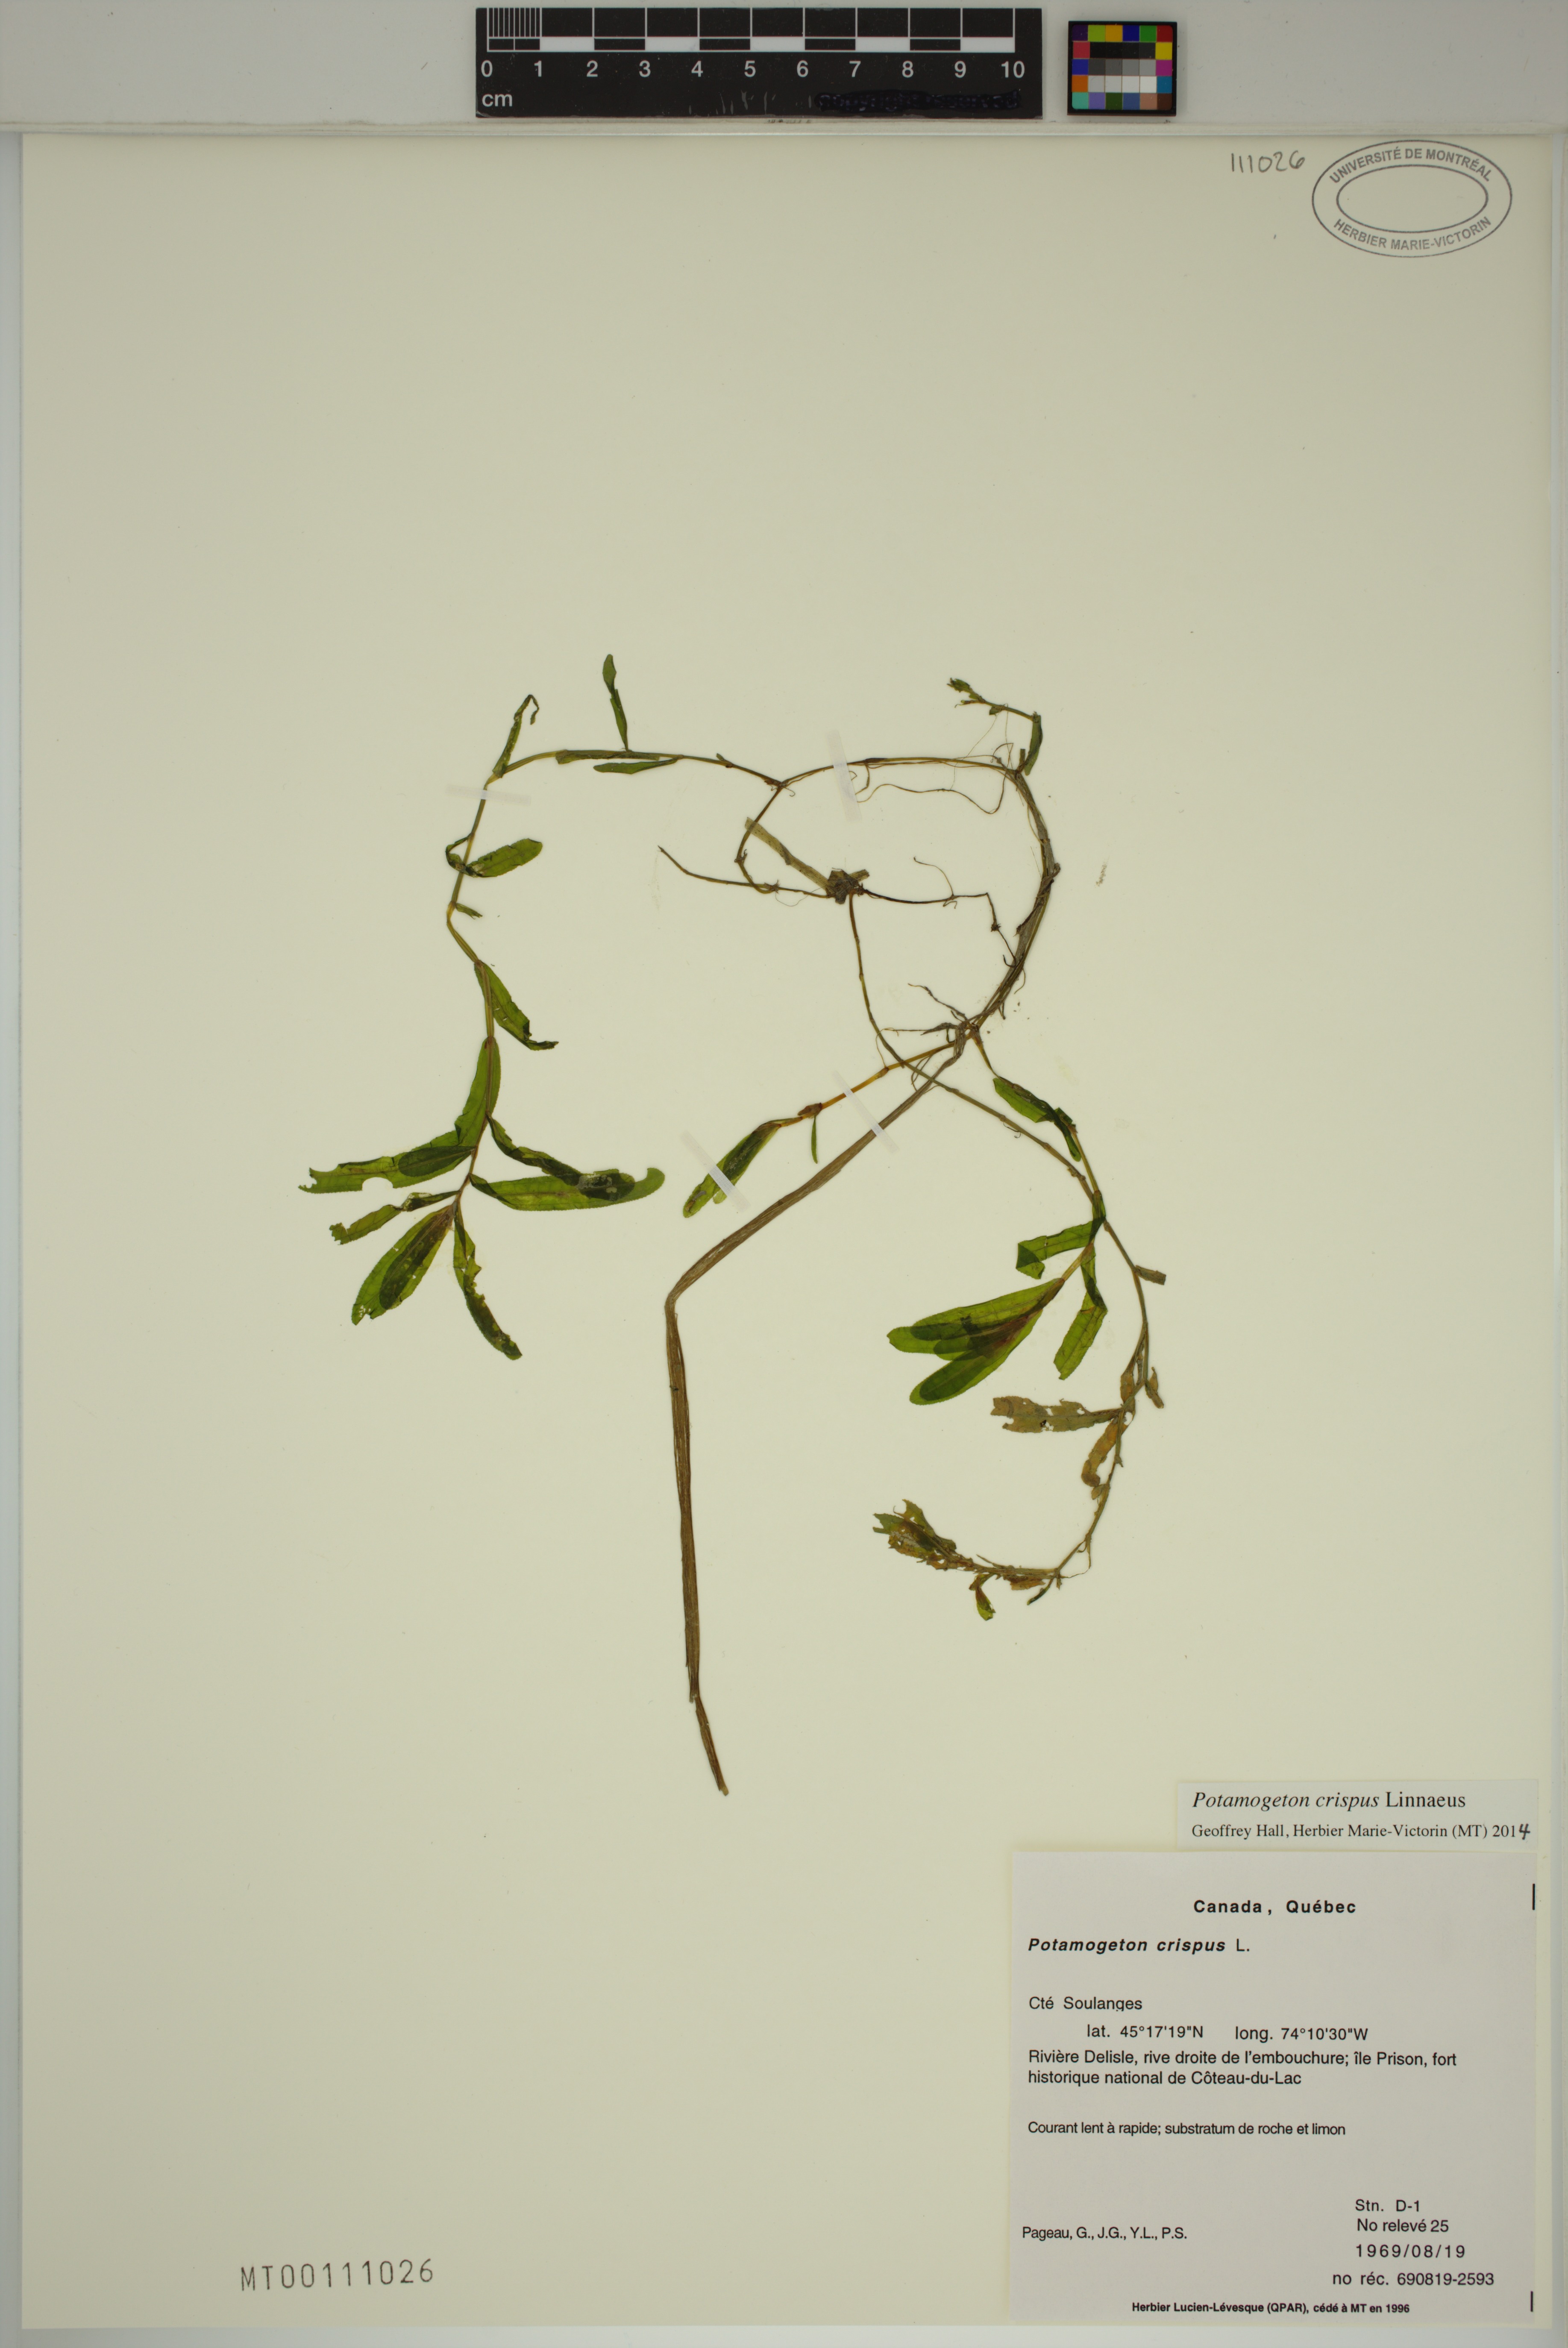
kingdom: Plantae
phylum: Tracheophyta
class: Liliopsida
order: Alismatales
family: Potamogetonaceae
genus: Potamogeton
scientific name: Potamogeton crispus
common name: Curled pondweed
